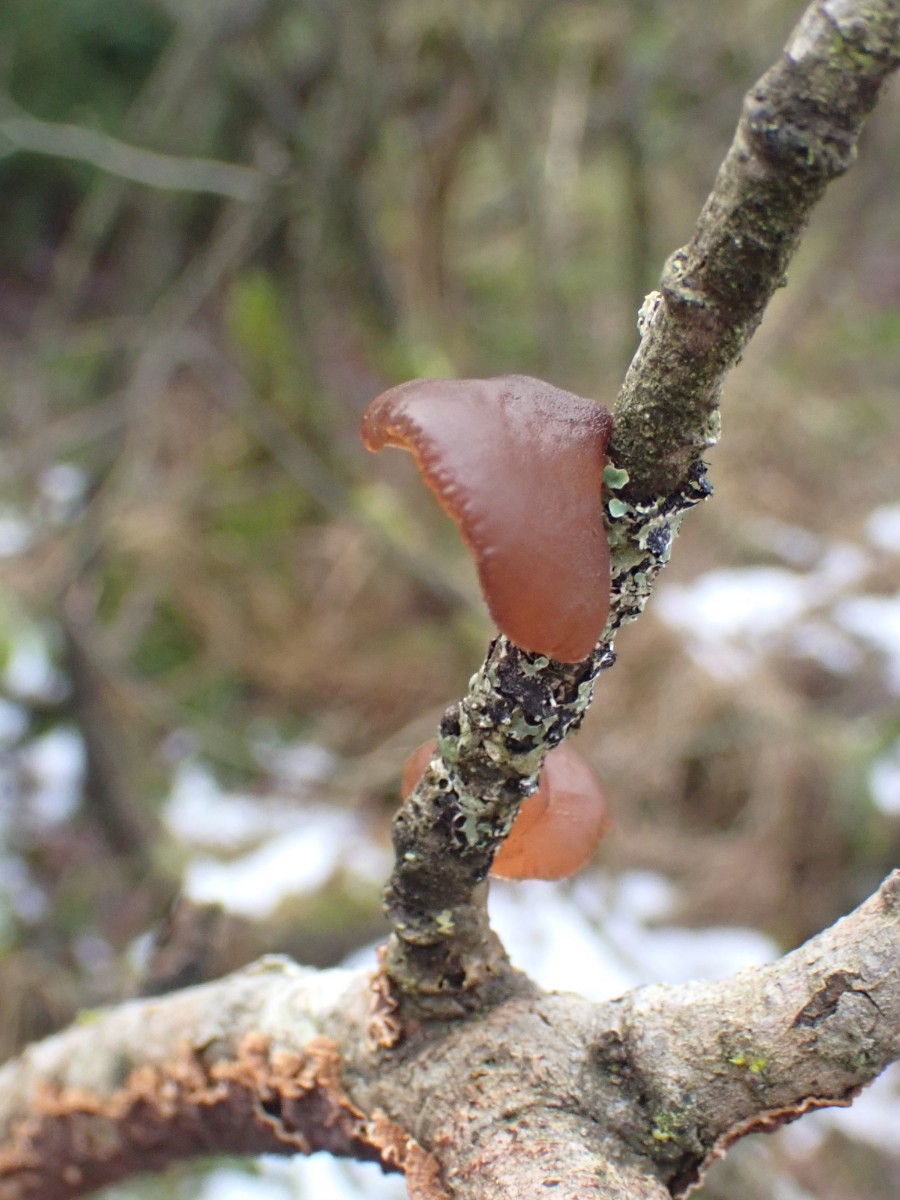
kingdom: Fungi
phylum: Basidiomycota
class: Agaricomycetes
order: Auriculariales
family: Auriculariaceae
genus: Exidia
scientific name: Exidia recisa
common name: pile-bævretop
